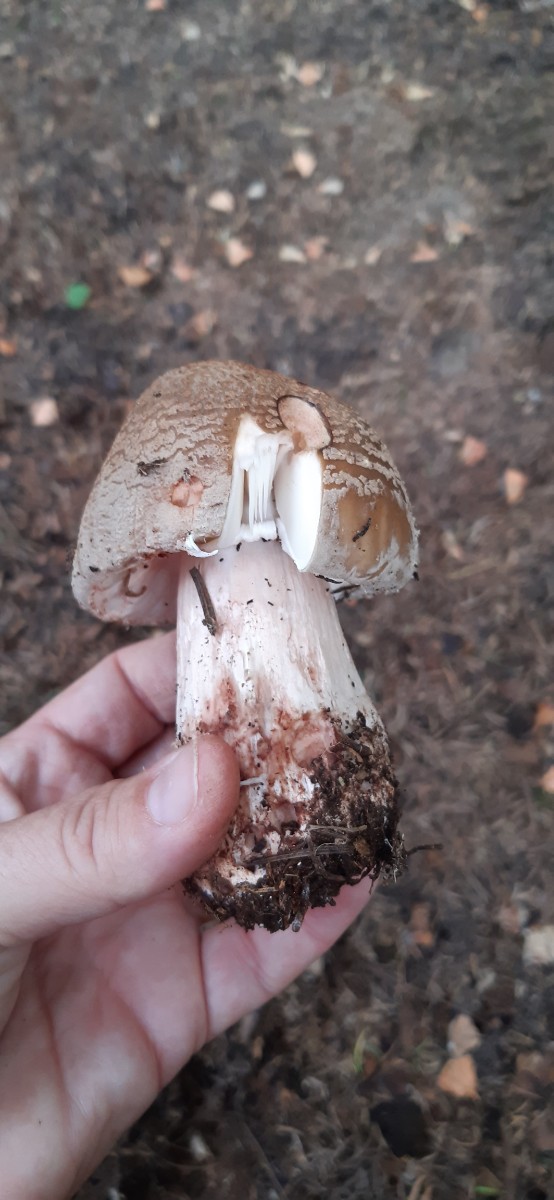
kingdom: Fungi
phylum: Basidiomycota
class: Agaricomycetes
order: Agaricales
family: Amanitaceae
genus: Amanita
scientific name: Amanita rubescens
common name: rødmende fluesvamp
